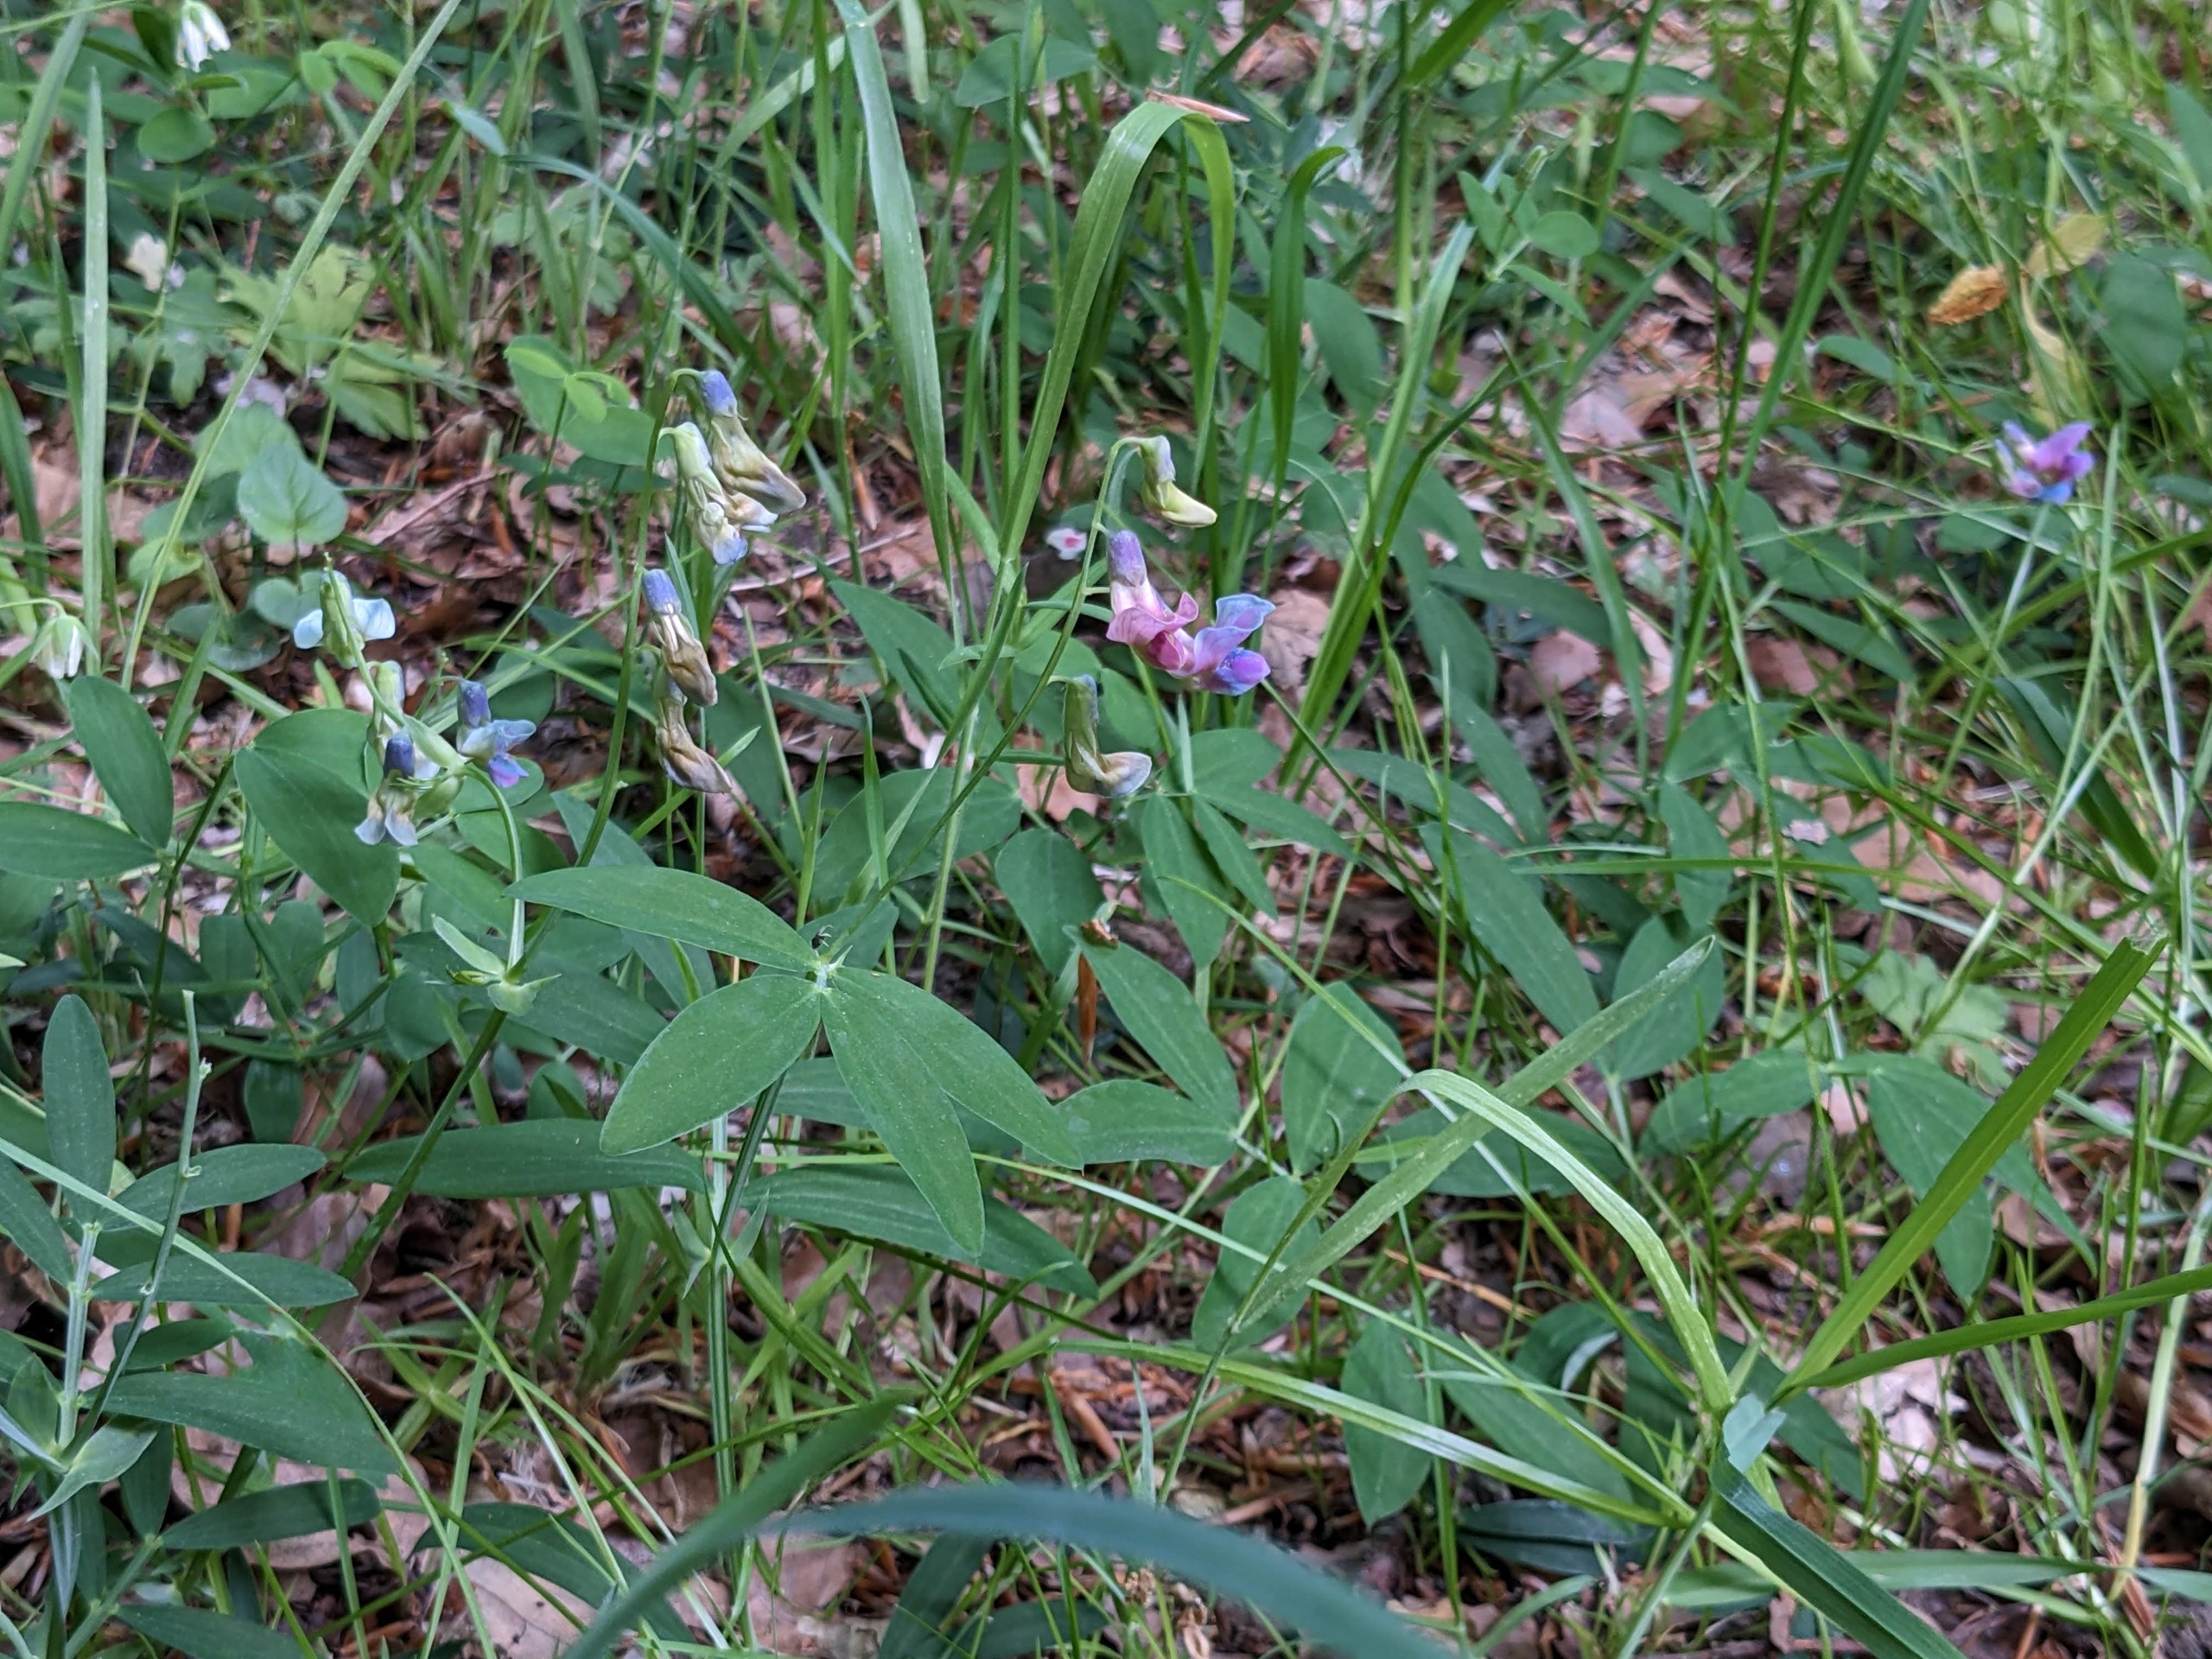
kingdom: Plantae
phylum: Tracheophyta
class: Magnoliopsida
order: Fabales
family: Fabaceae
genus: Lathyrus
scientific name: Lathyrus linifolius
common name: Krat-fladbælg
